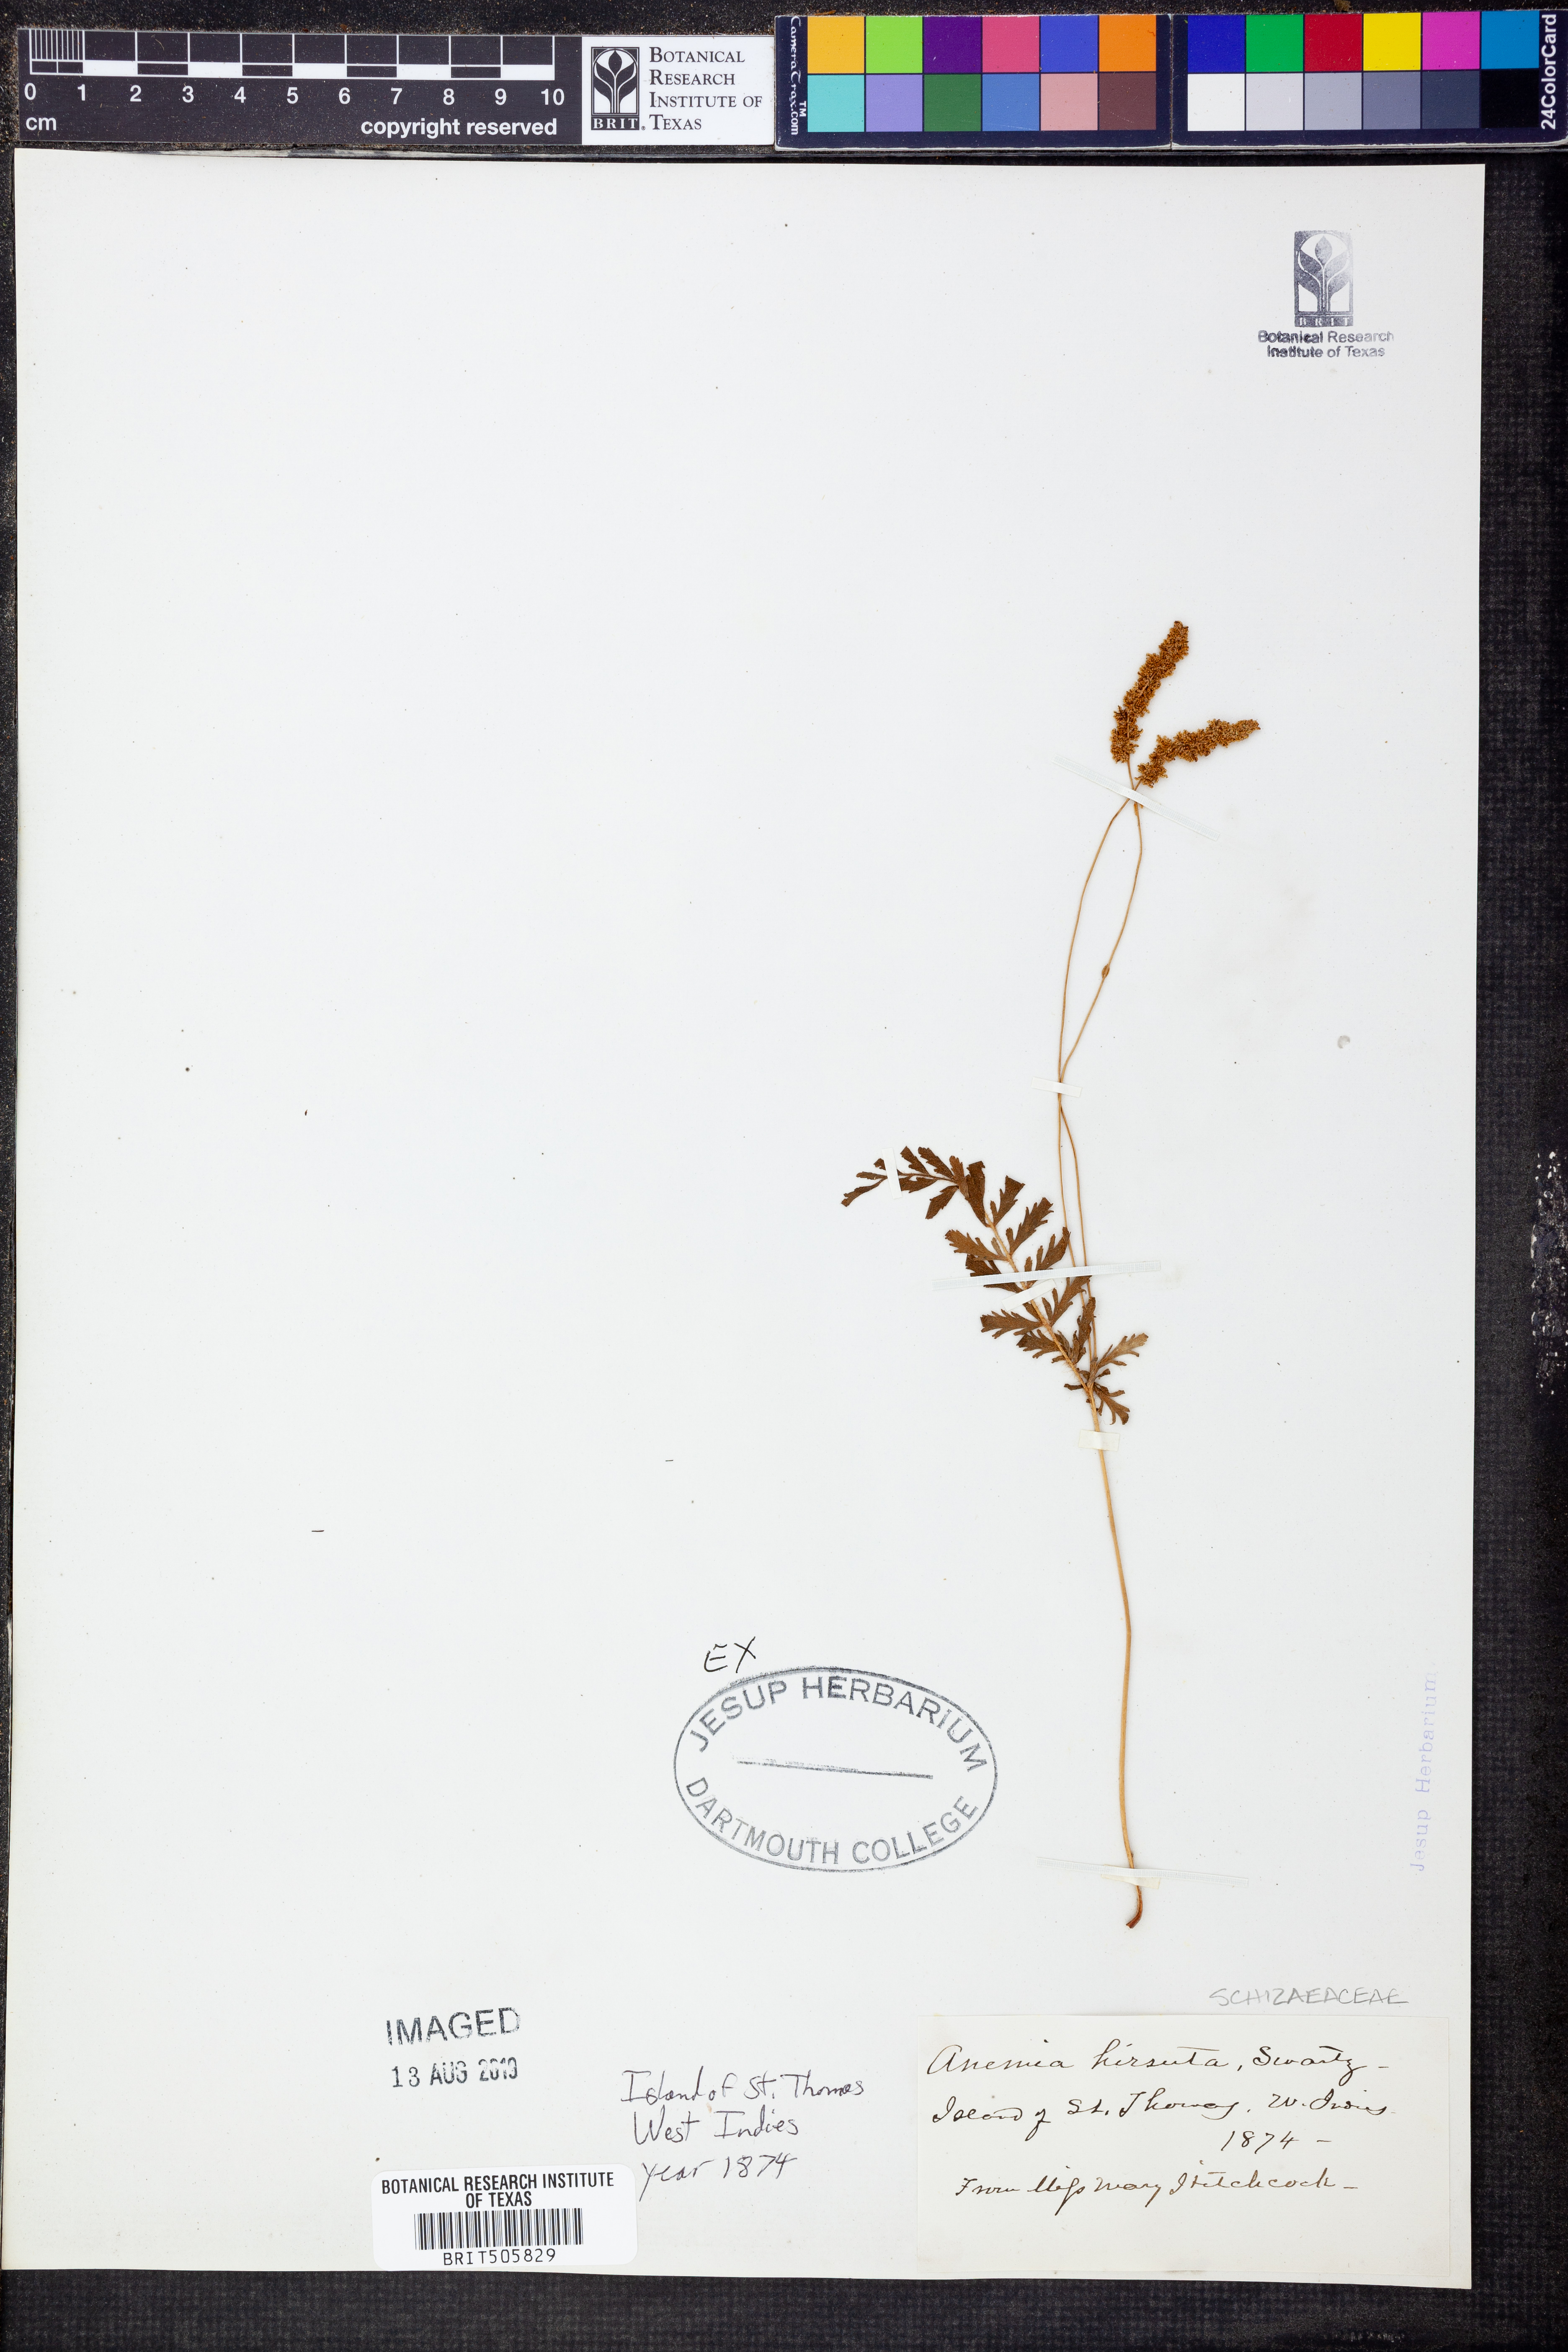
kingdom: Plantae
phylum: Tracheophyta
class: Polypodiopsida
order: Schizaeales
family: Anemiaceae
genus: Anemia
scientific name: Anemia hirsuta
